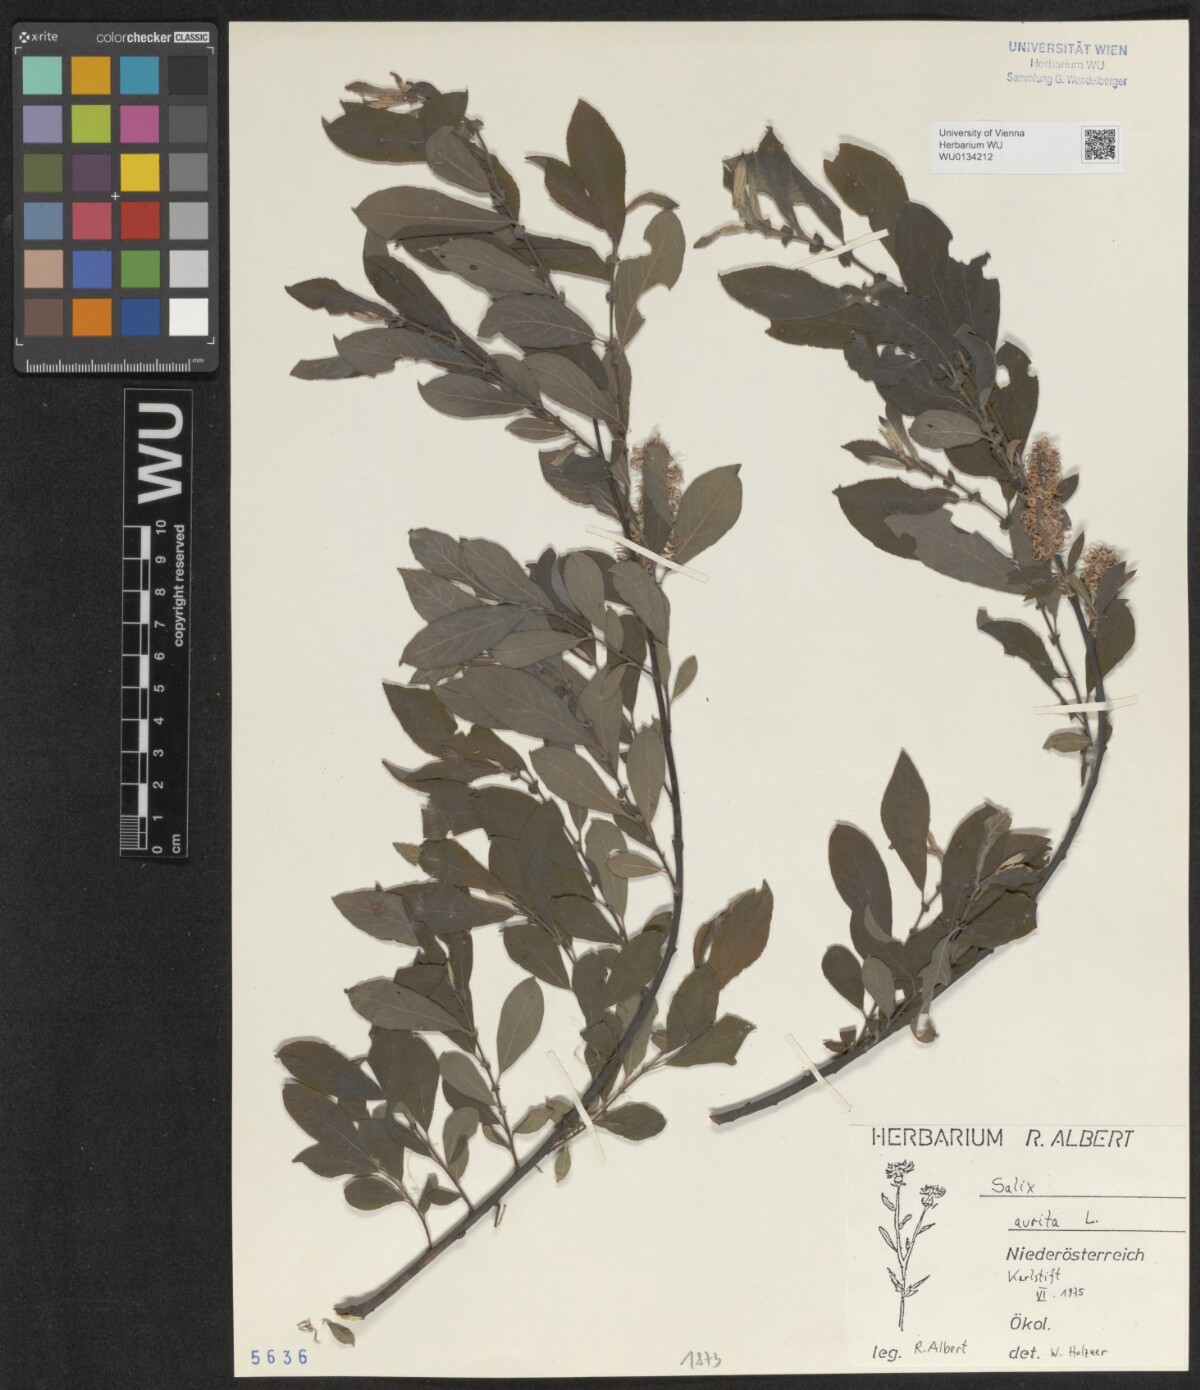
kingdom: Plantae
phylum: Tracheophyta
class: Magnoliopsida
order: Malpighiales
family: Salicaceae
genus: Salix
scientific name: Salix aurita
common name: Eared willow
